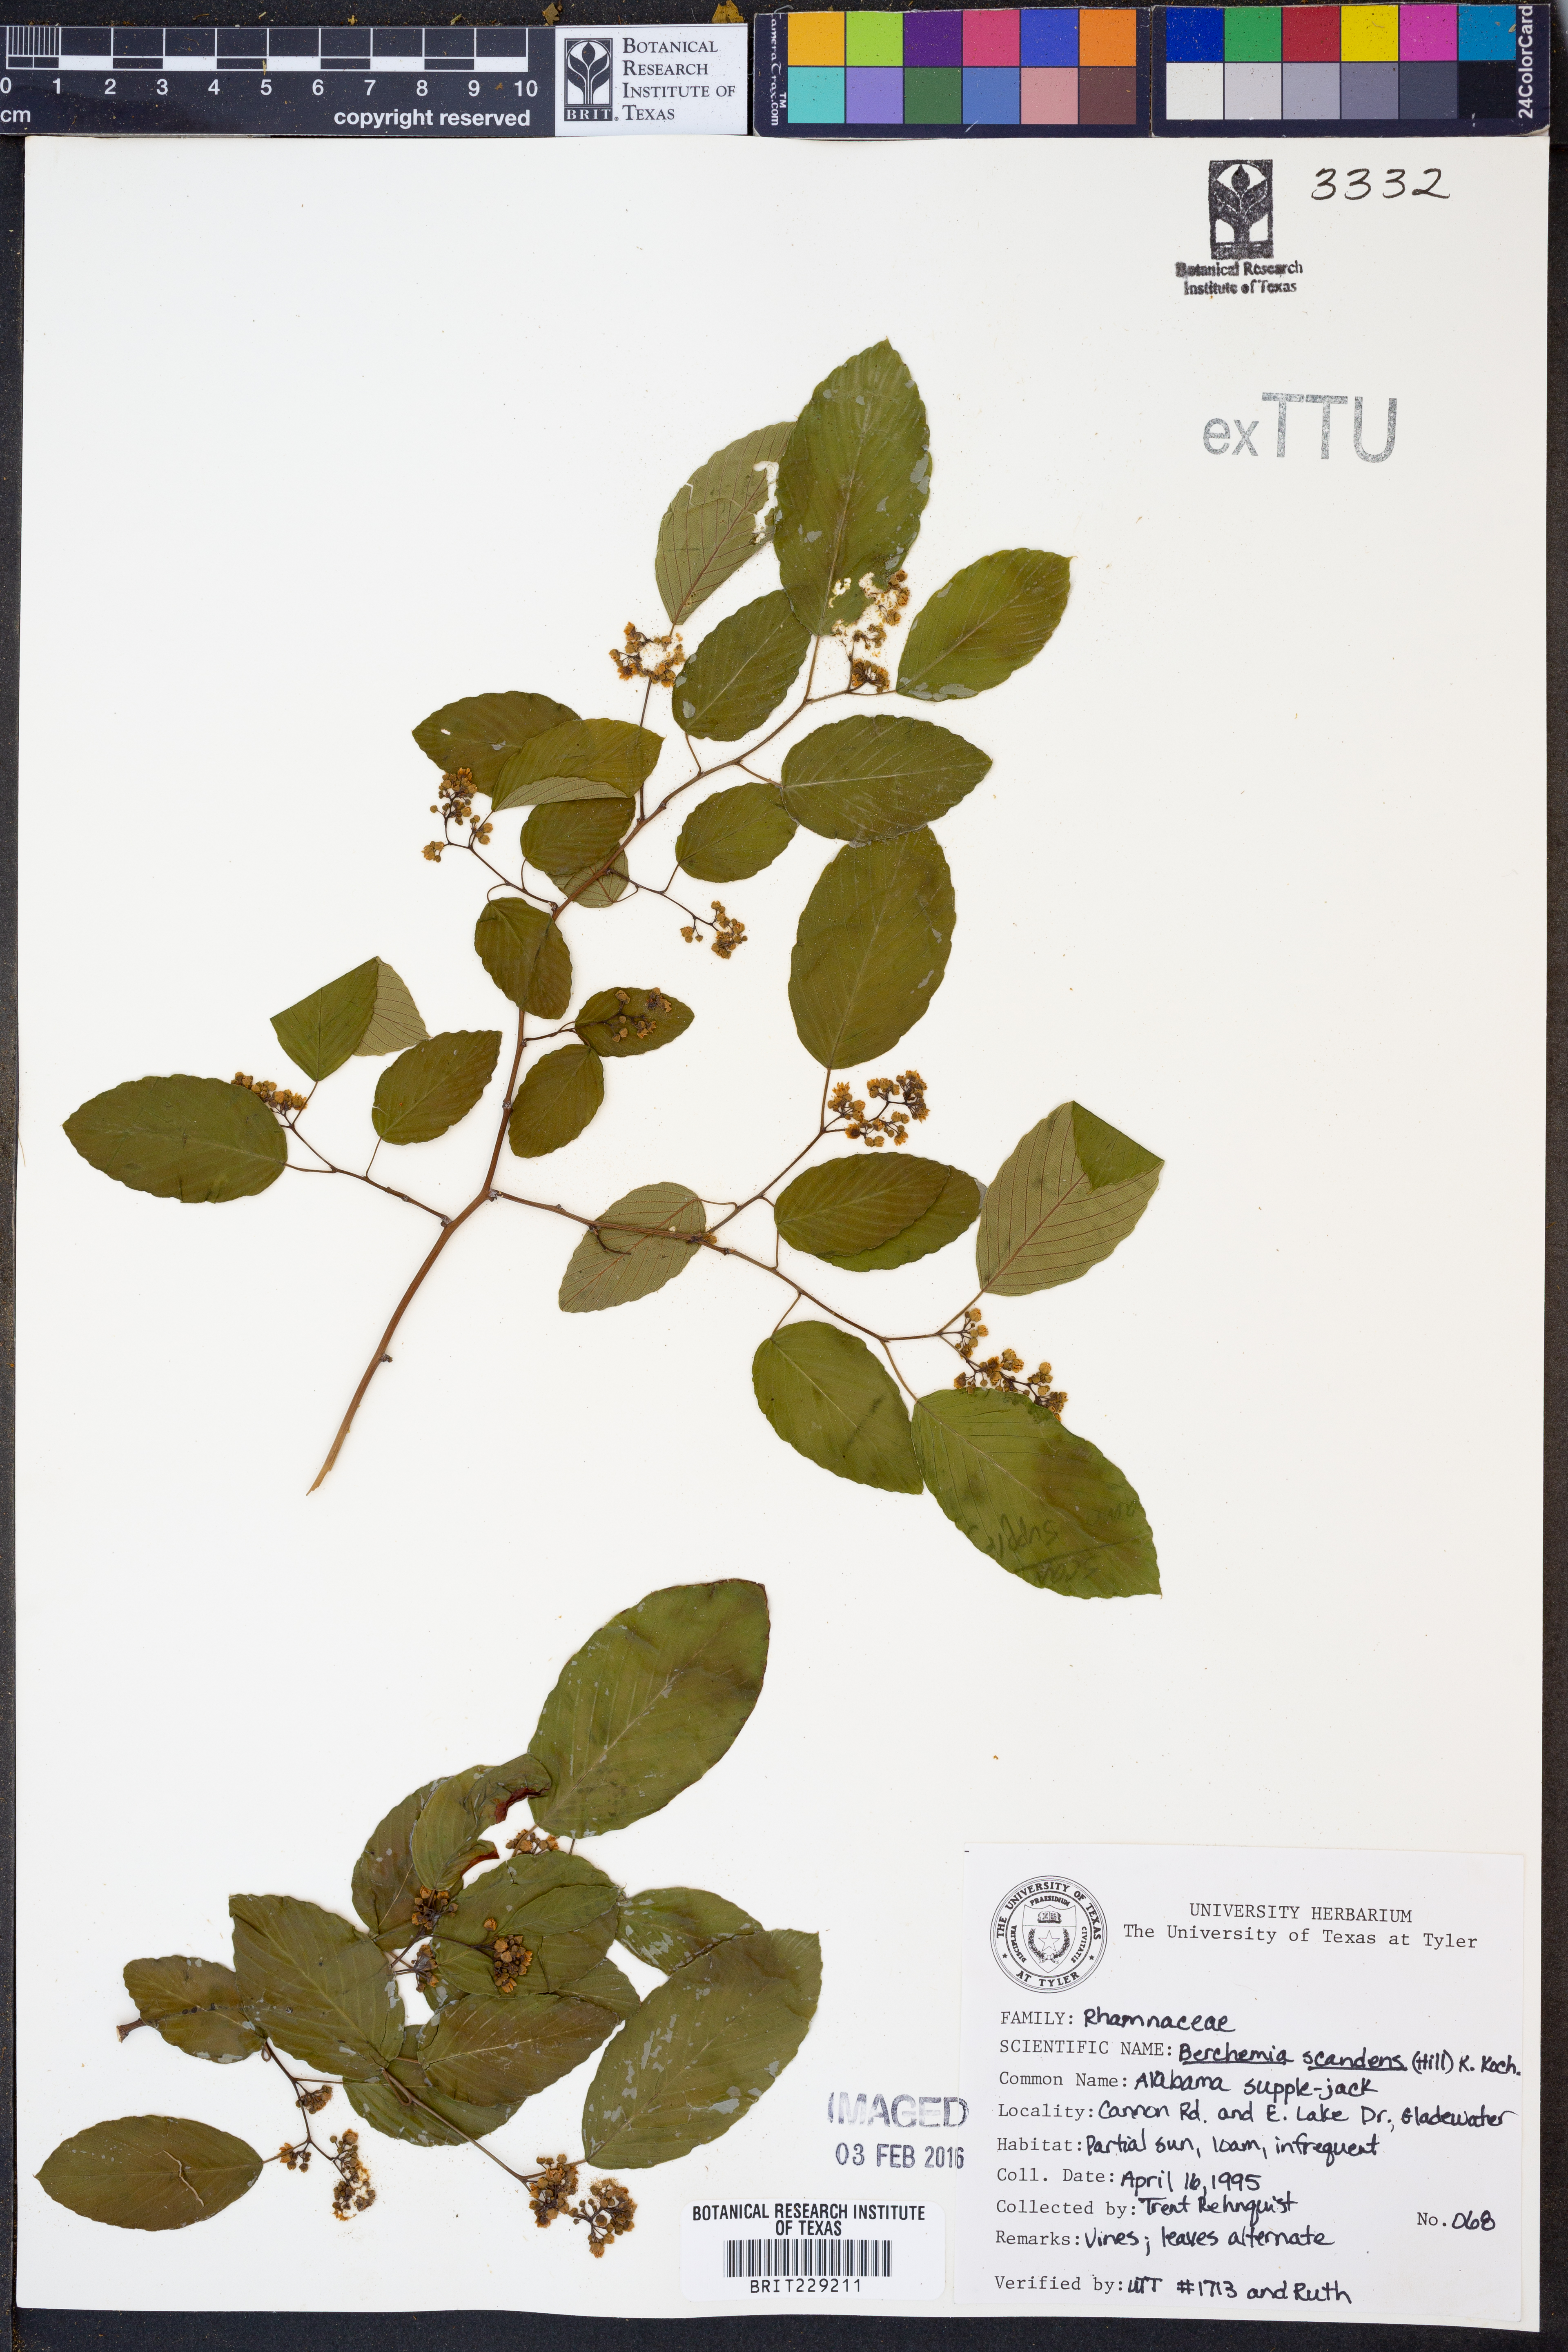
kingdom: Plantae
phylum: Tracheophyta
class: Magnoliopsida
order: Rosales
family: Rhamnaceae
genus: Berchemia
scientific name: Berchemia scandens
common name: Supplejack
